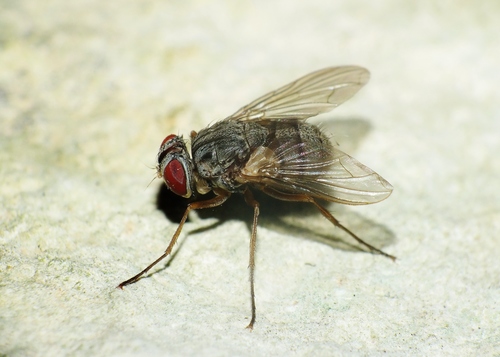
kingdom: Animalia
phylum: Arthropoda
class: Insecta
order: Diptera
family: Tachinidae
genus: Therobia
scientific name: Therobia leonidei
